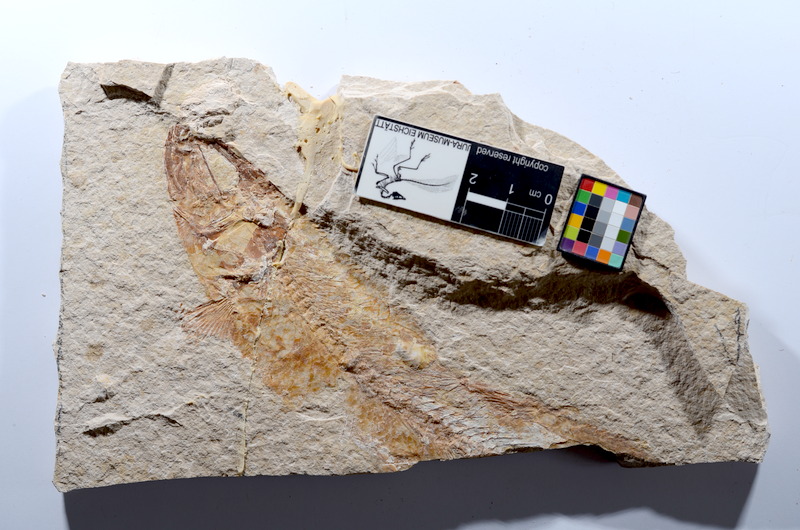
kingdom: Animalia
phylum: Chordata
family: Ascalaboidae
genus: Tharsis
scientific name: Tharsis dubius
